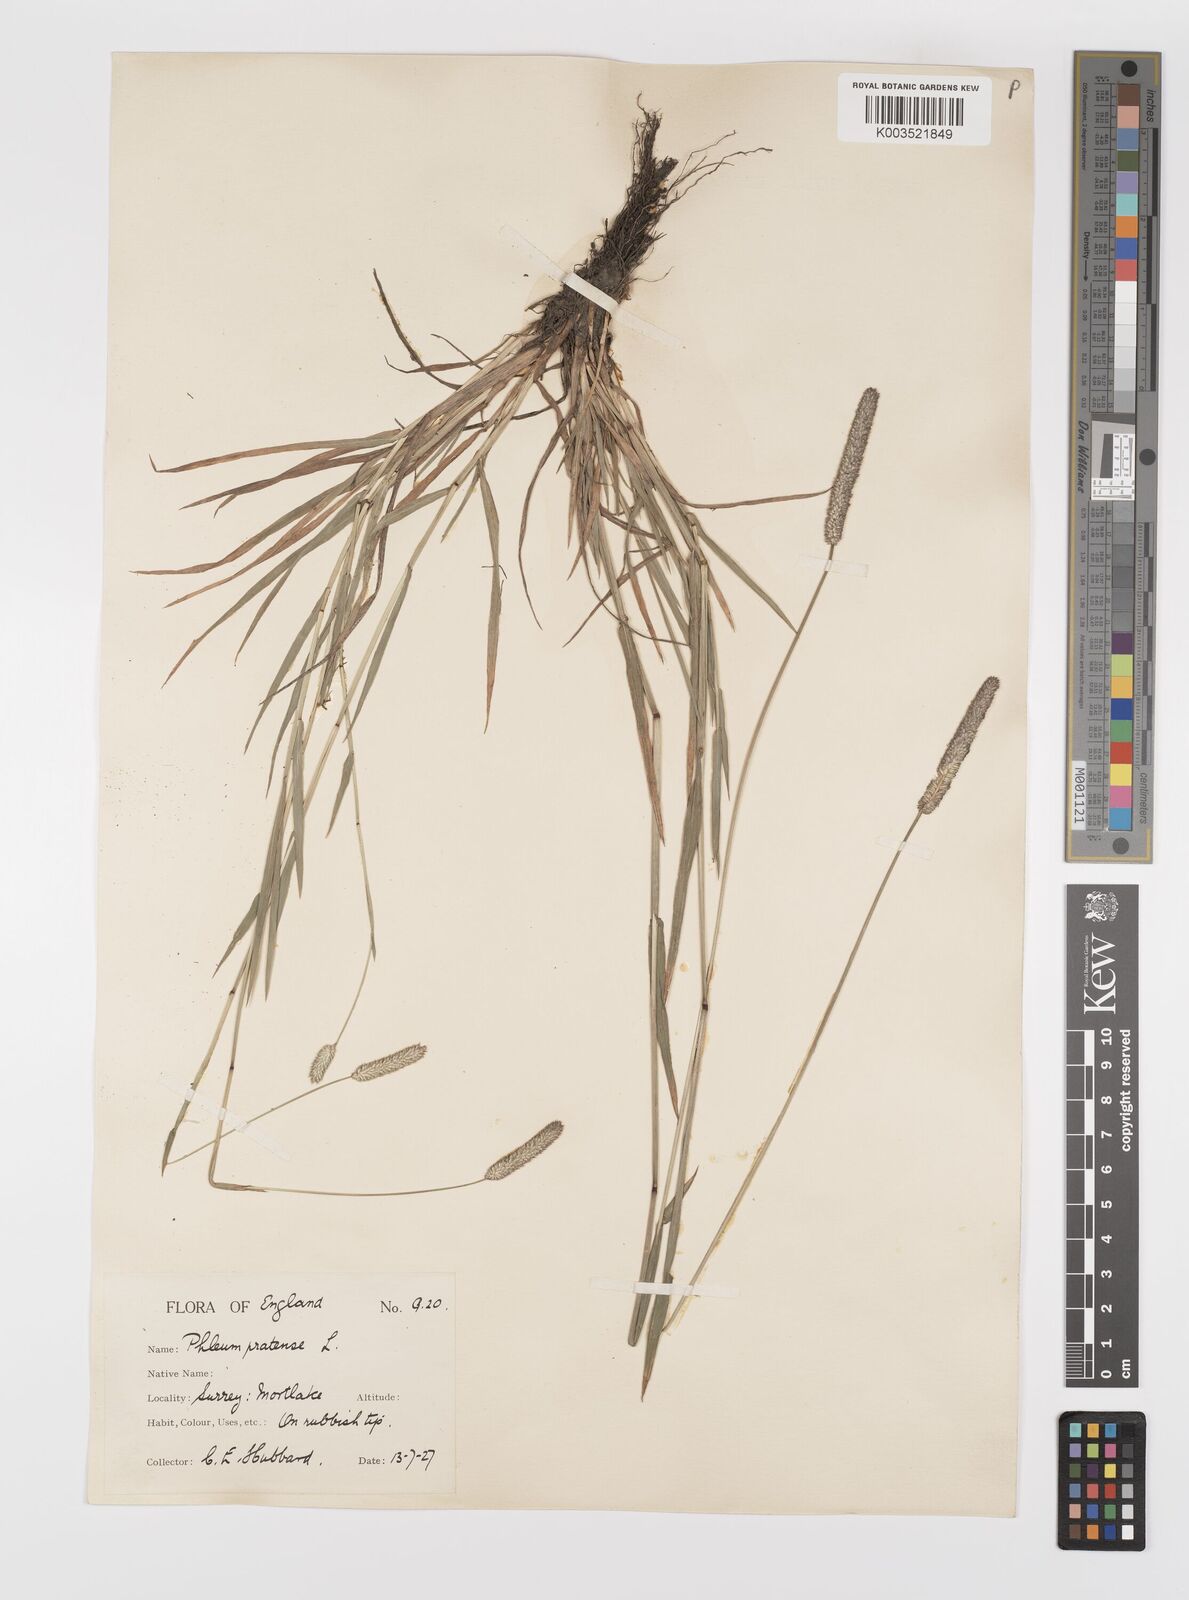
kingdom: Plantae
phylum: Tracheophyta
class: Liliopsida
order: Poales
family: Poaceae
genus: Phleum
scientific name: Phleum bertolonii
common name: Smaller cat's-tail
